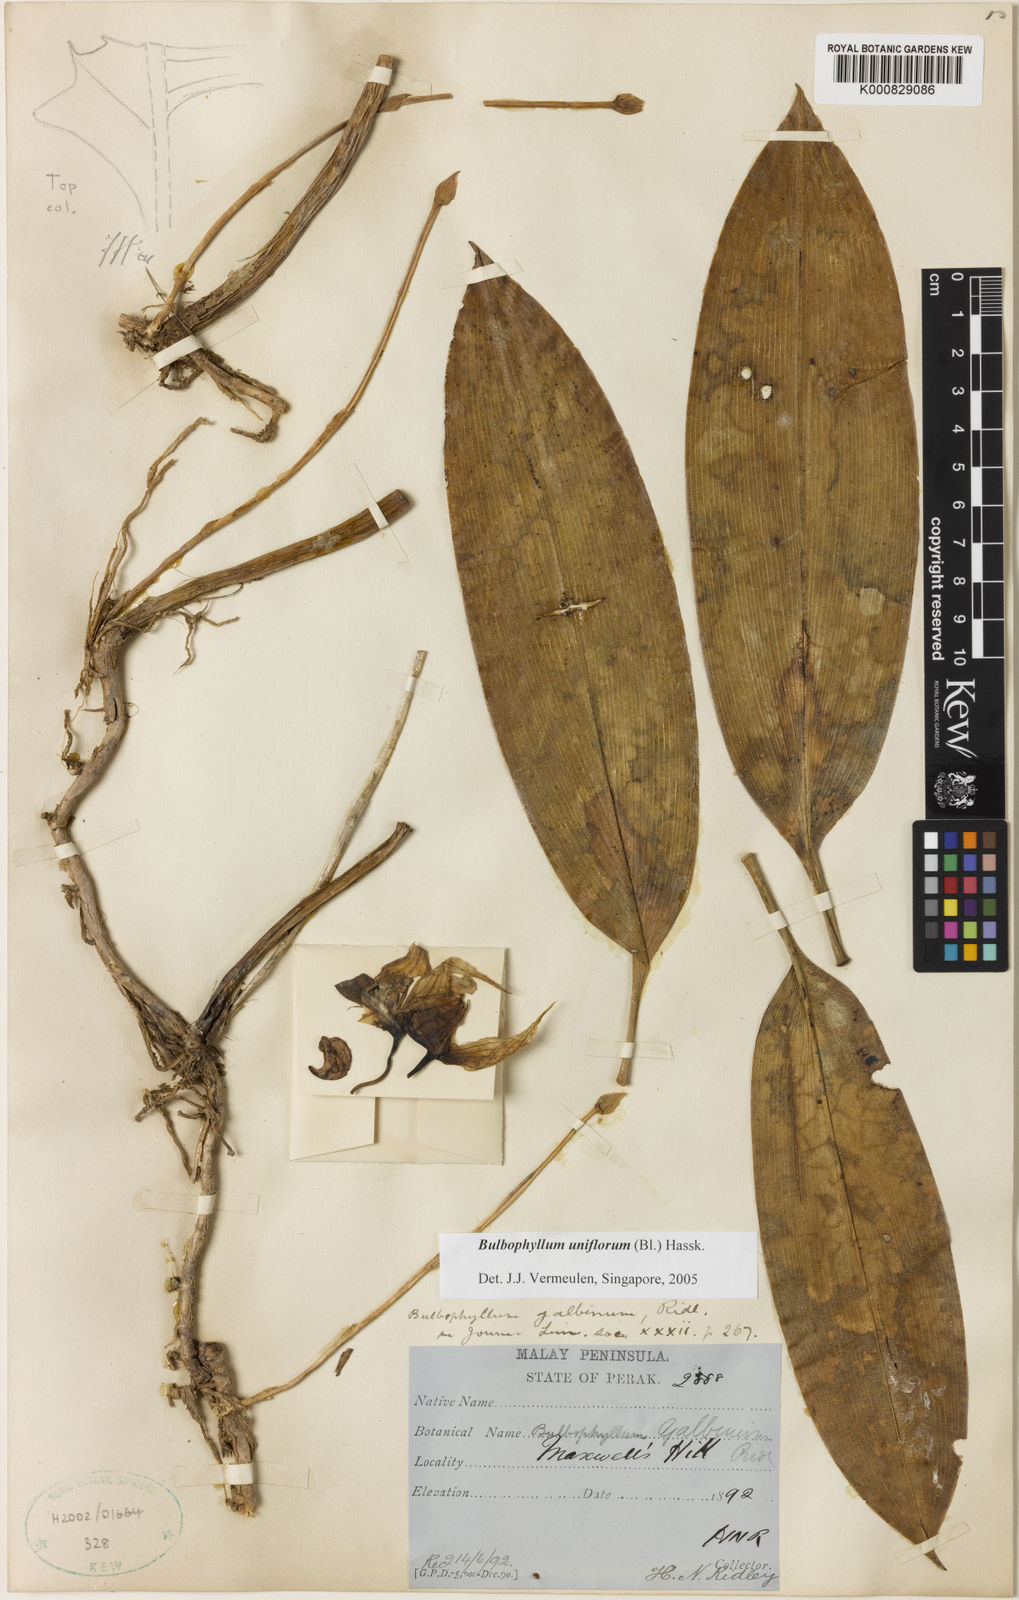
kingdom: Plantae
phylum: Tracheophyta
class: Liliopsida
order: Asparagales
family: Orchidaceae
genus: Bulbophyllum
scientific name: Bulbophyllum pteroglossum
